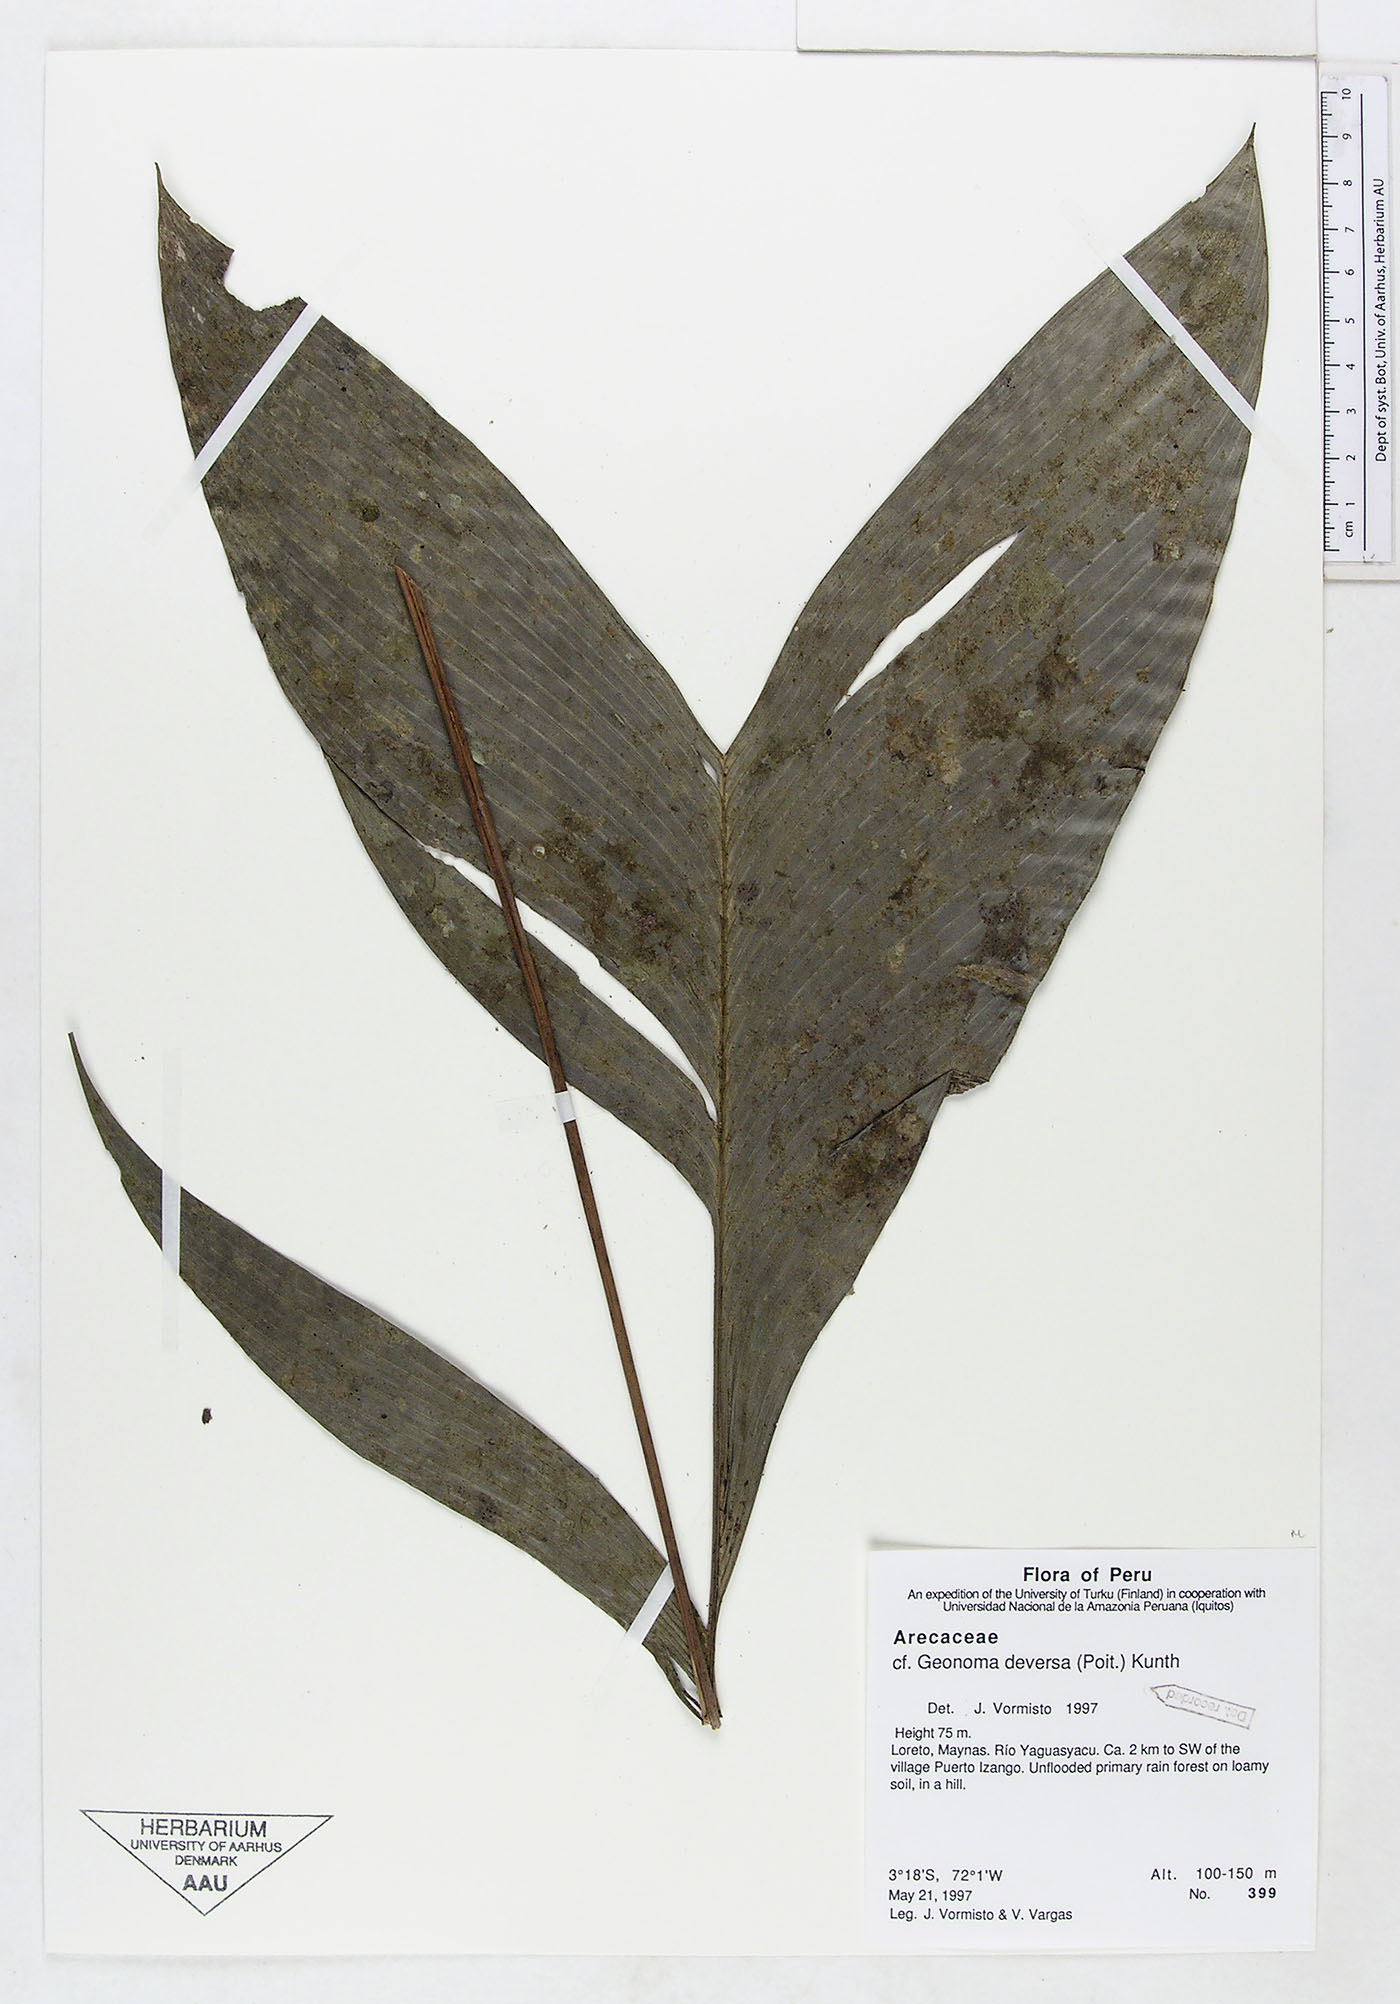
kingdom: Plantae
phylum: Tracheophyta
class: Liliopsida
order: Arecales
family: Arecaceae
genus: Geonoma
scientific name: Geonoma deversa
